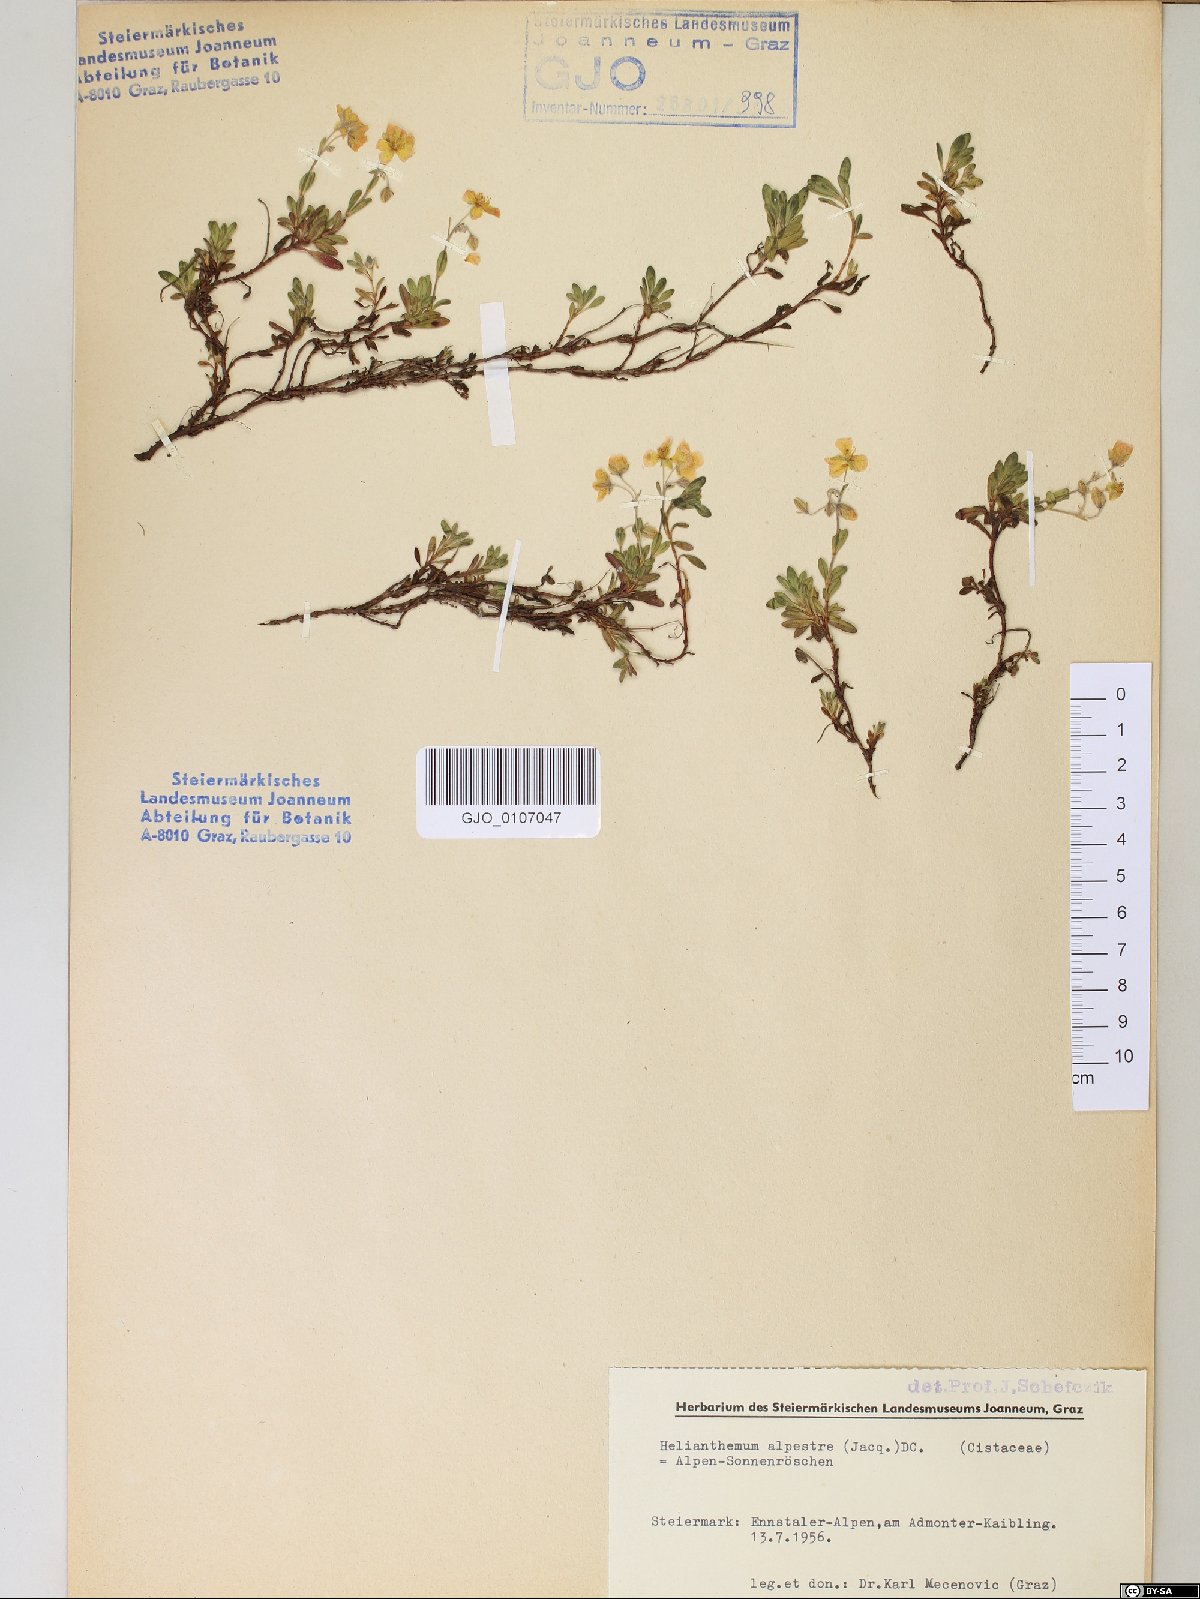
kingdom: Plantae
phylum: Tracheophyta
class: Magnoliopsida
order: Malvales
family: Cistaceae
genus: Helianthemum
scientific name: Helianthemum alpestre
